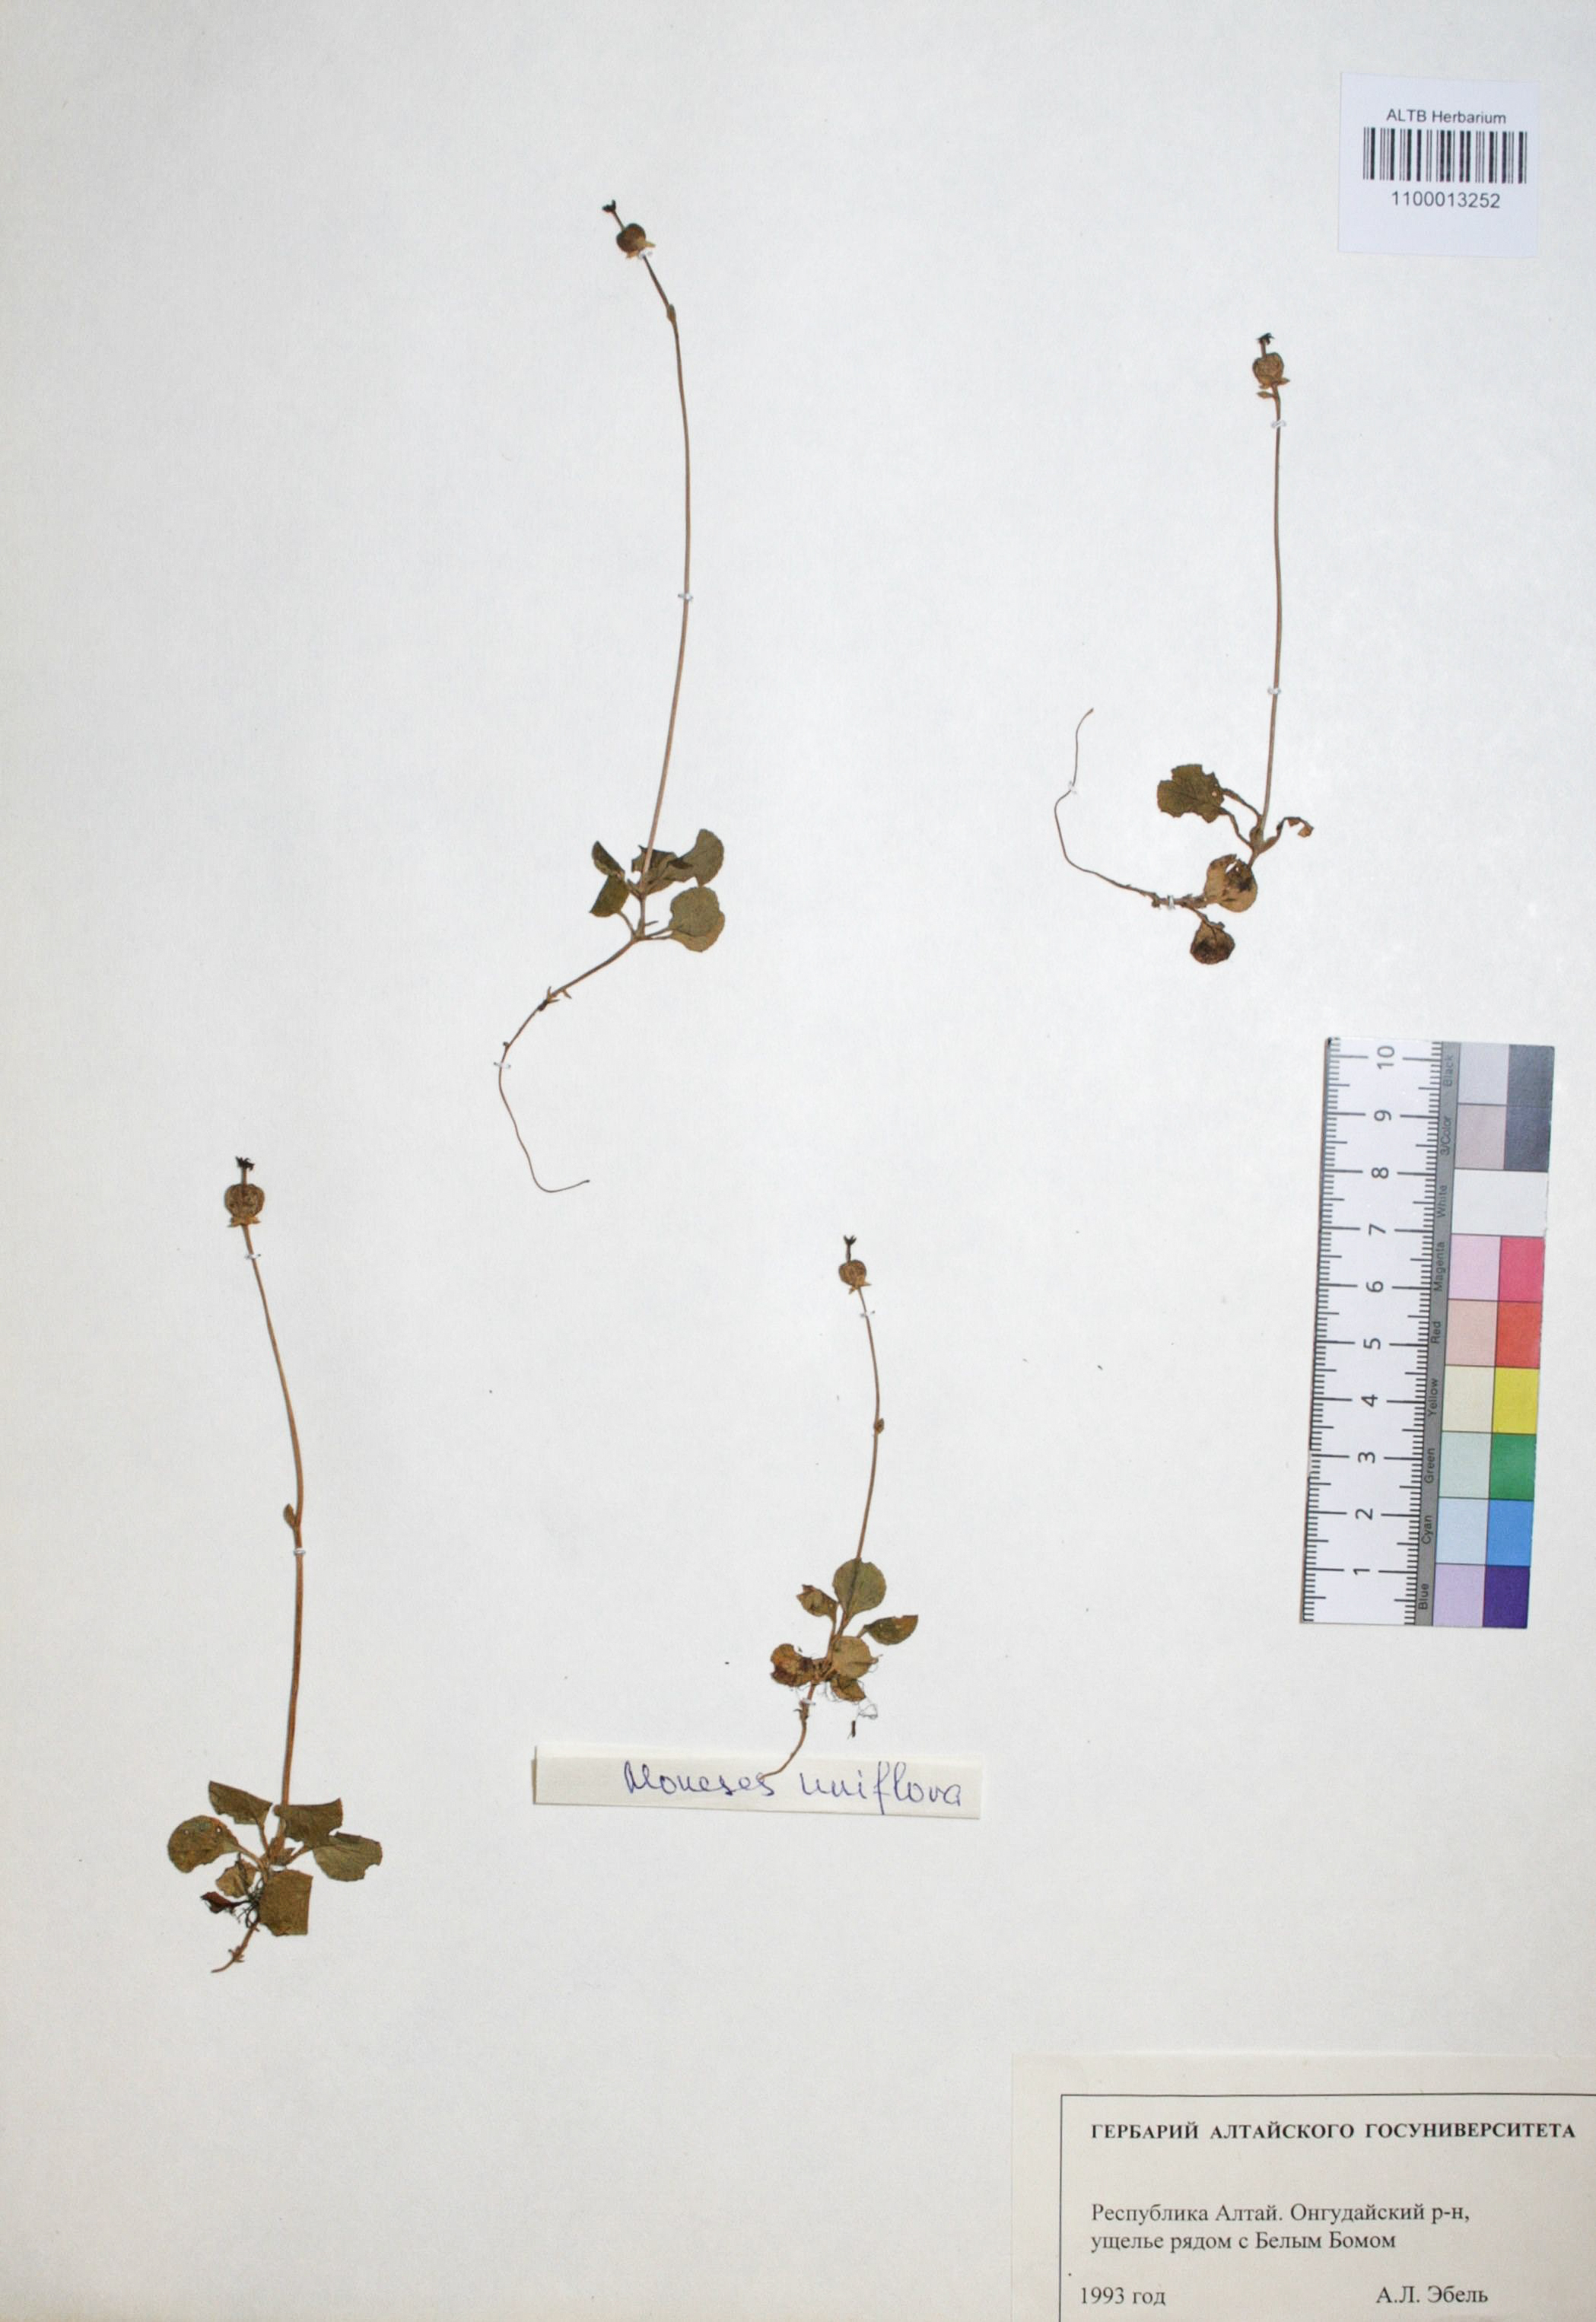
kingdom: Plantae
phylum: Tracheophyta
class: Magnoliopsida
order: Ericales
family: Ericaceae
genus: Moneses
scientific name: Moneses uniflora
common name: One-flowered wintergreen
